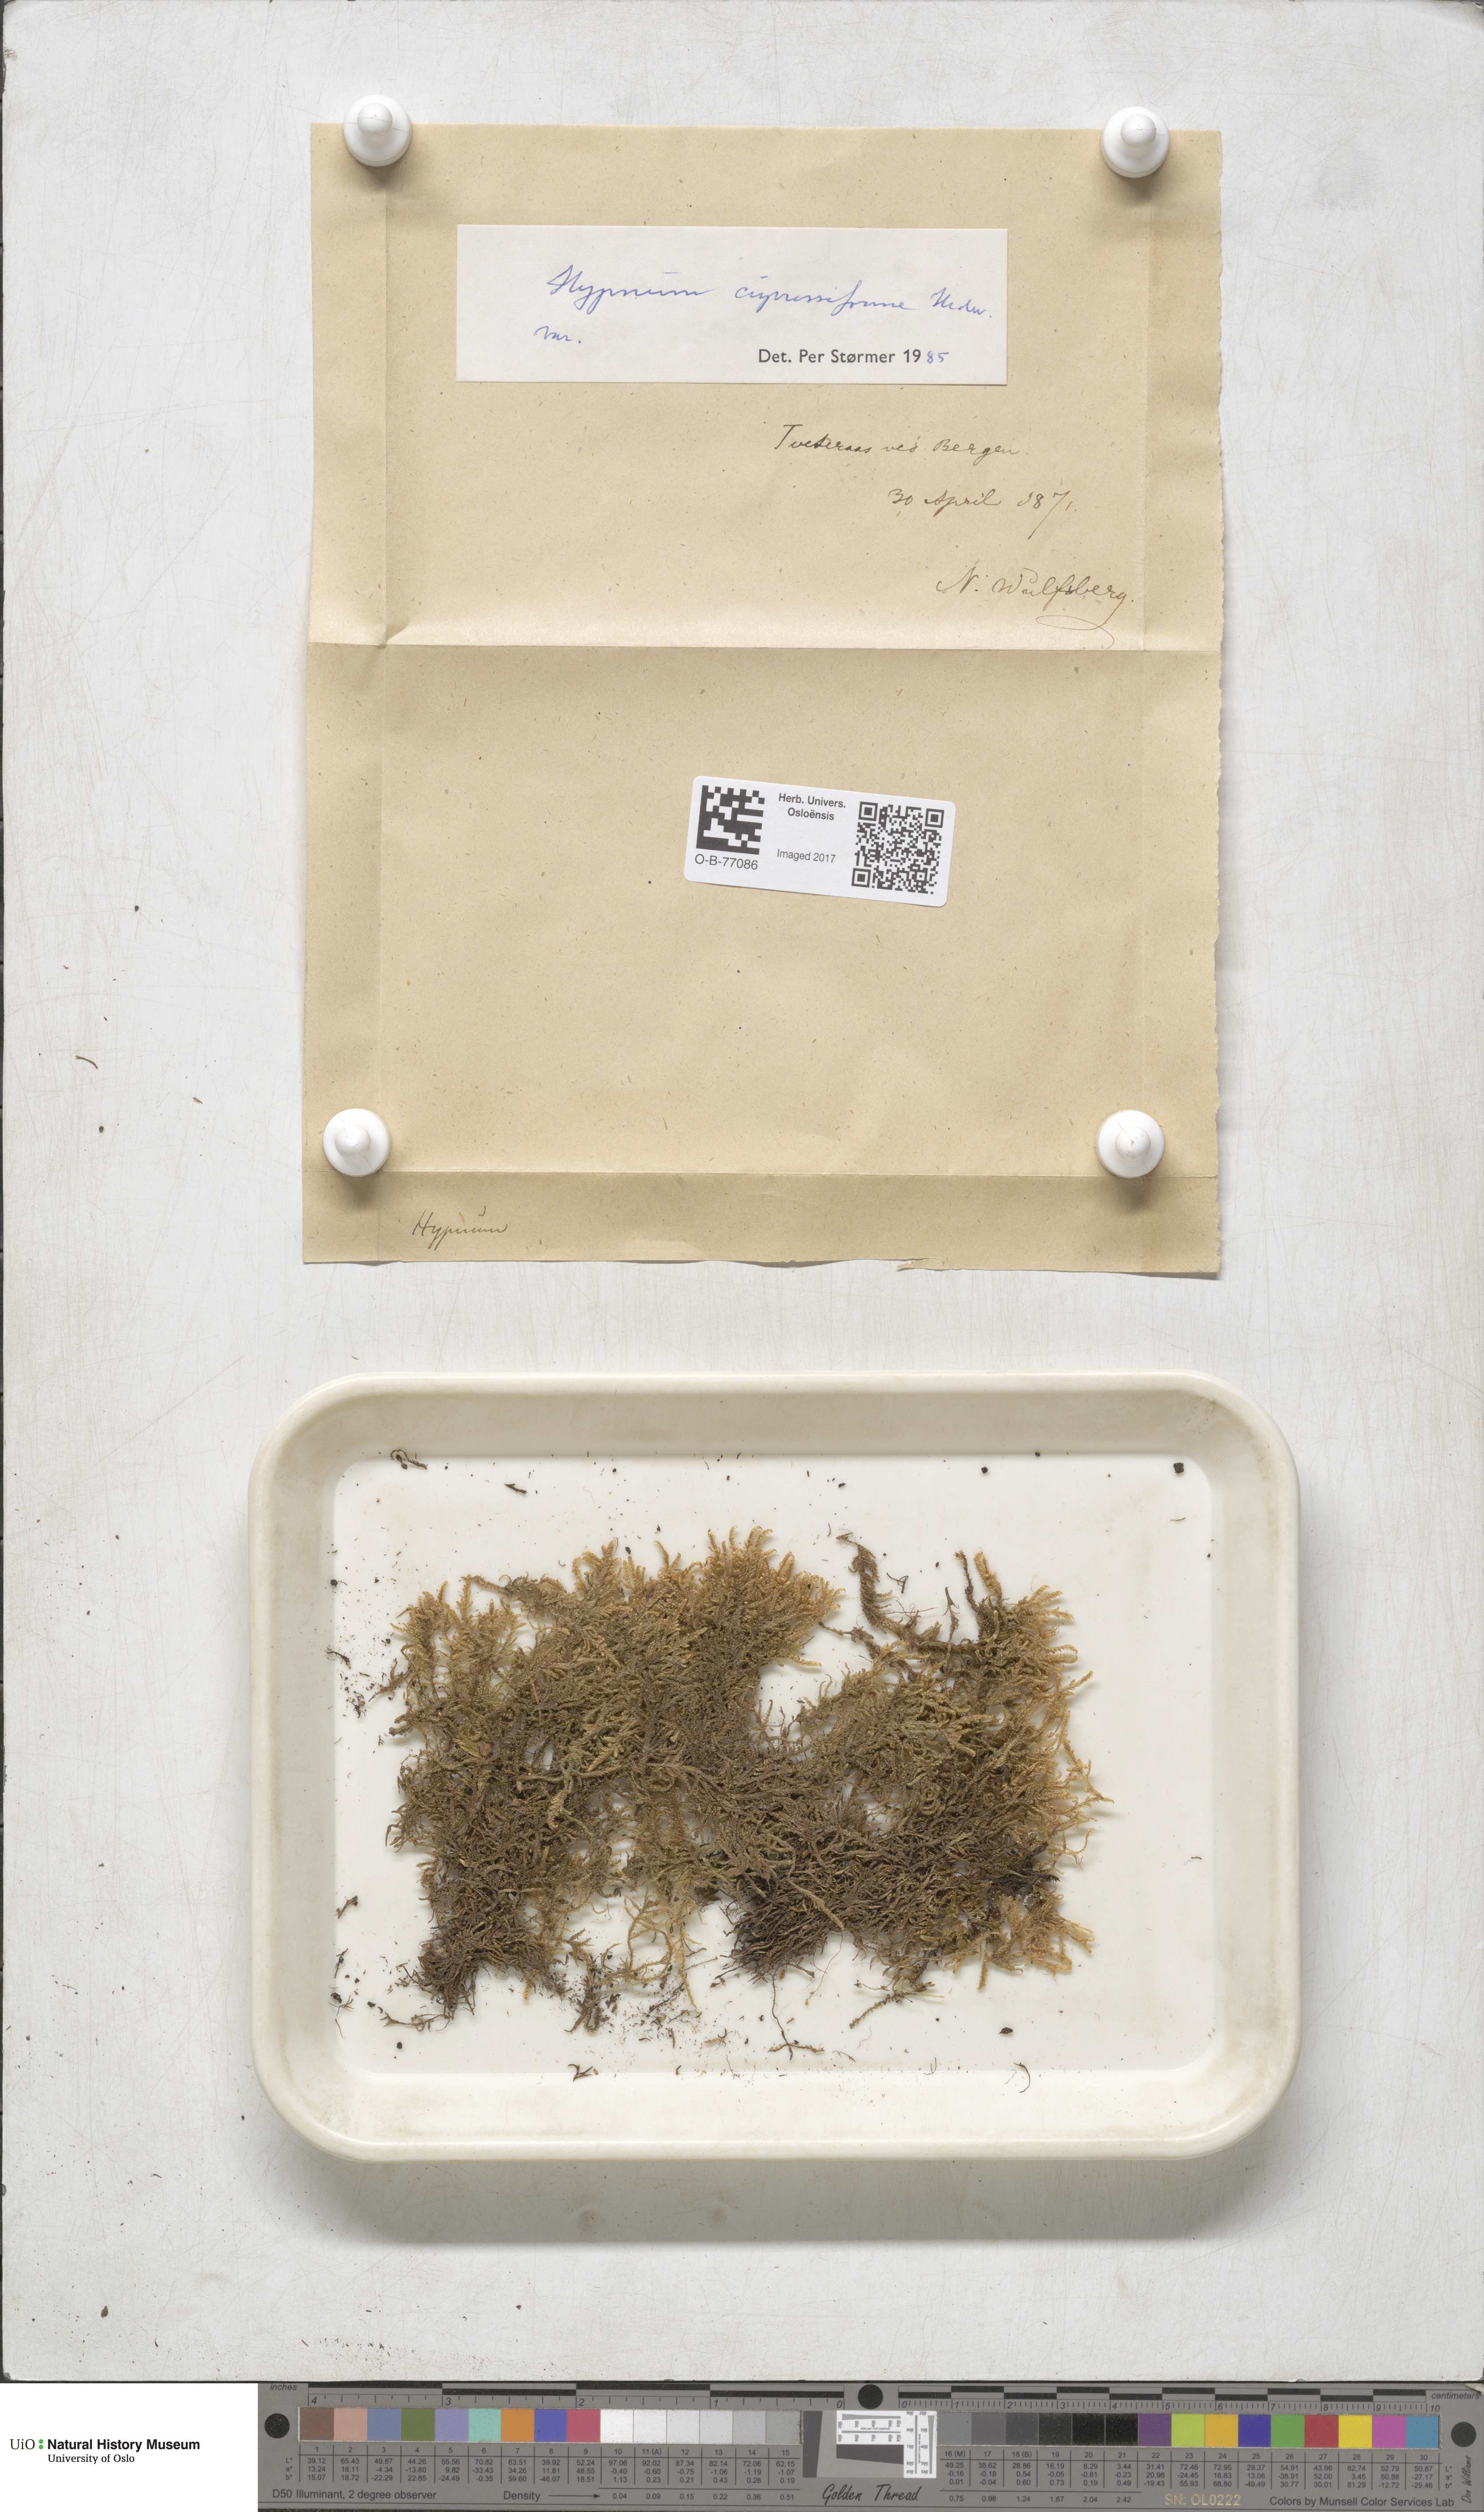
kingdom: Plantae
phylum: Bryophyta
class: Bryopsida
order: Hypnales
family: Hypnaceae
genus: Hypnum
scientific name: Hypnum cupressiforme
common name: Cypress-leaved plait-moss
